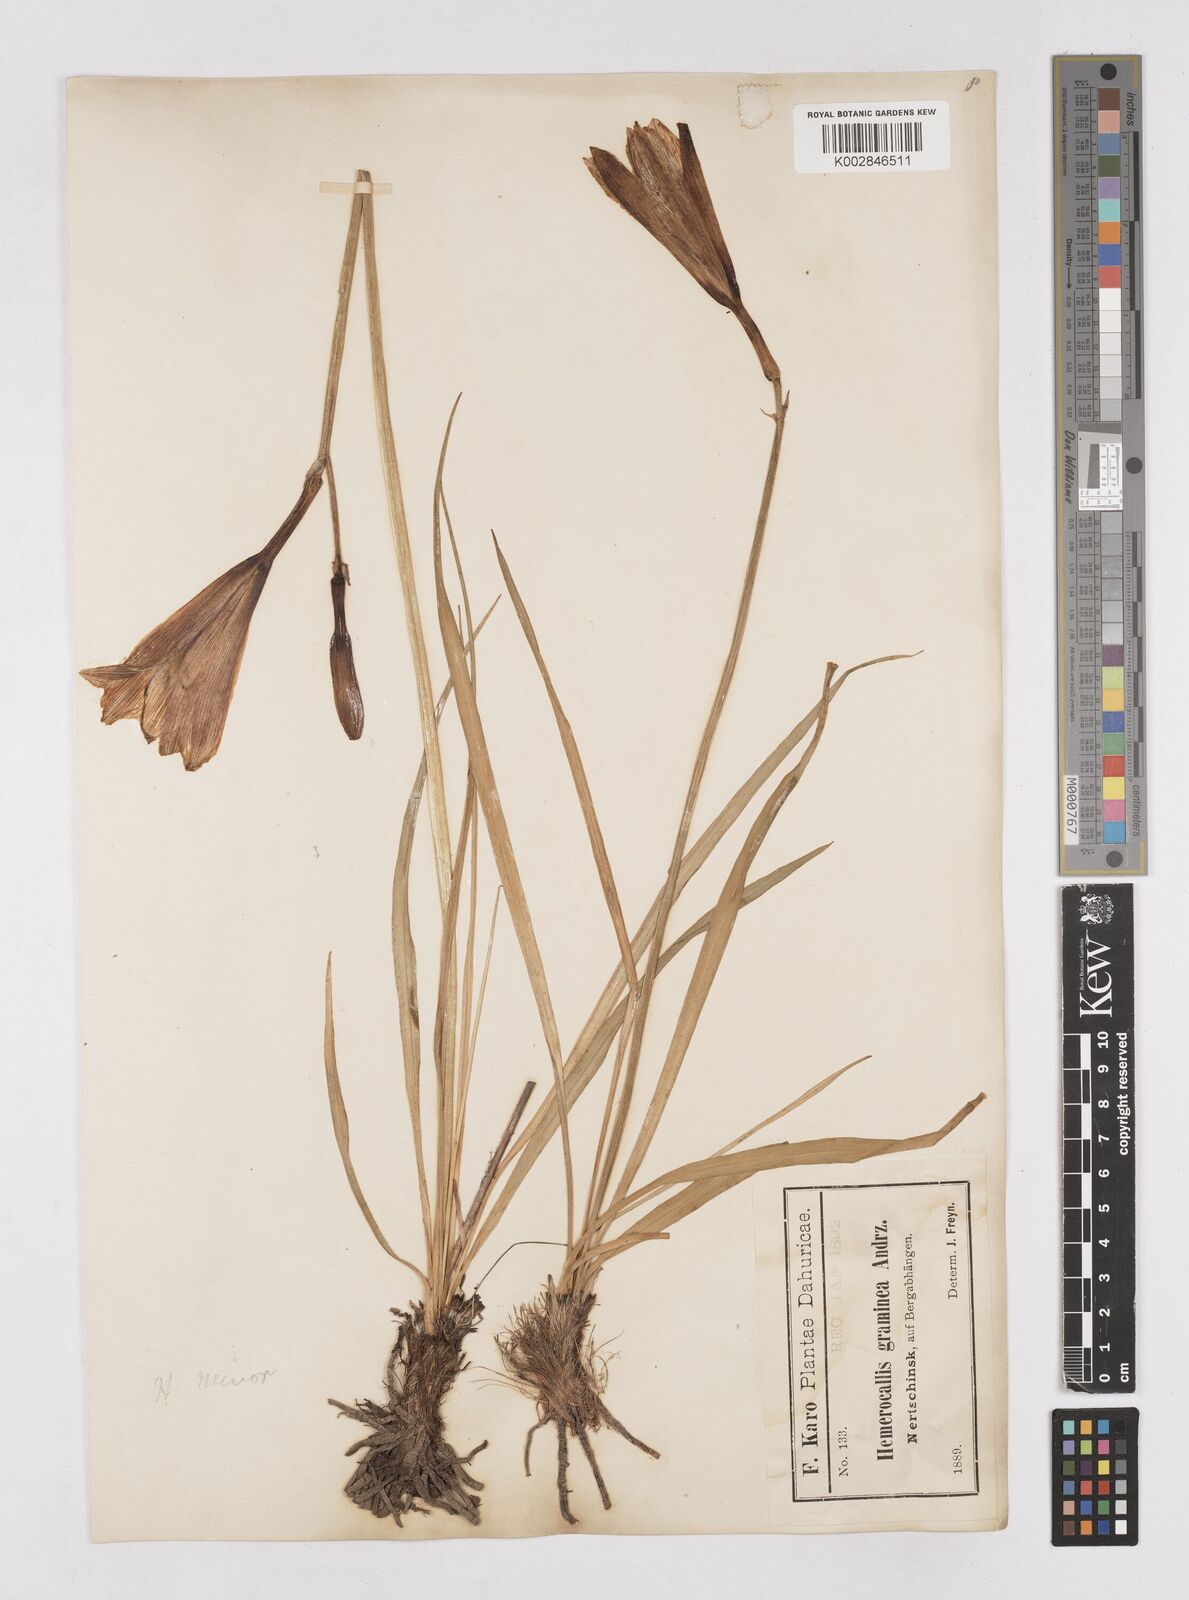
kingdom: Plantae
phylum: Tracheophyta
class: Liliopsida
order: Asparagales
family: Asphodelaceae
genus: Hemerocallis
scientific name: Hemerocallis minor
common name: Small daylily
